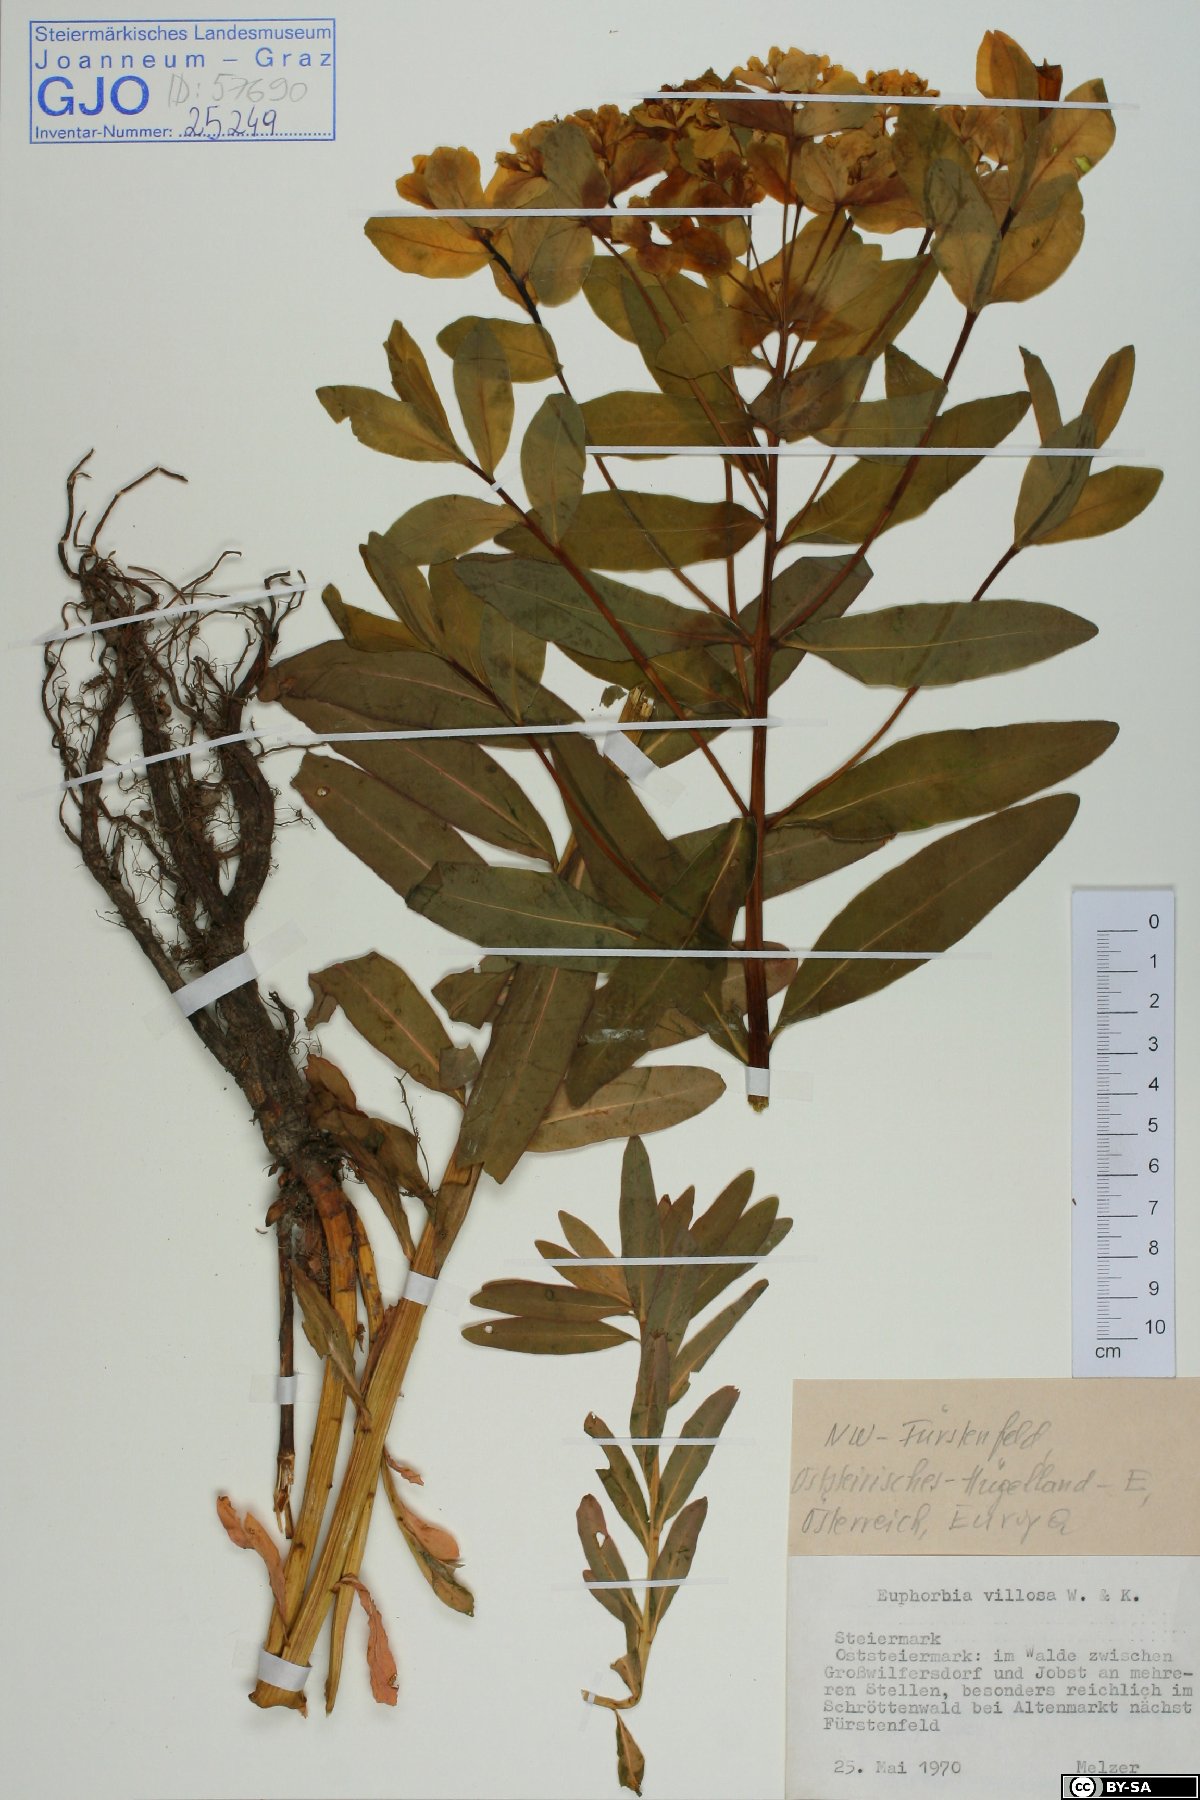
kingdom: Plantae
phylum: Tracheophyta
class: Magnoliopsida
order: Malpighiales
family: Euphorbiaceae
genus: Euphorbia
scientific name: Euphorbia illirica
